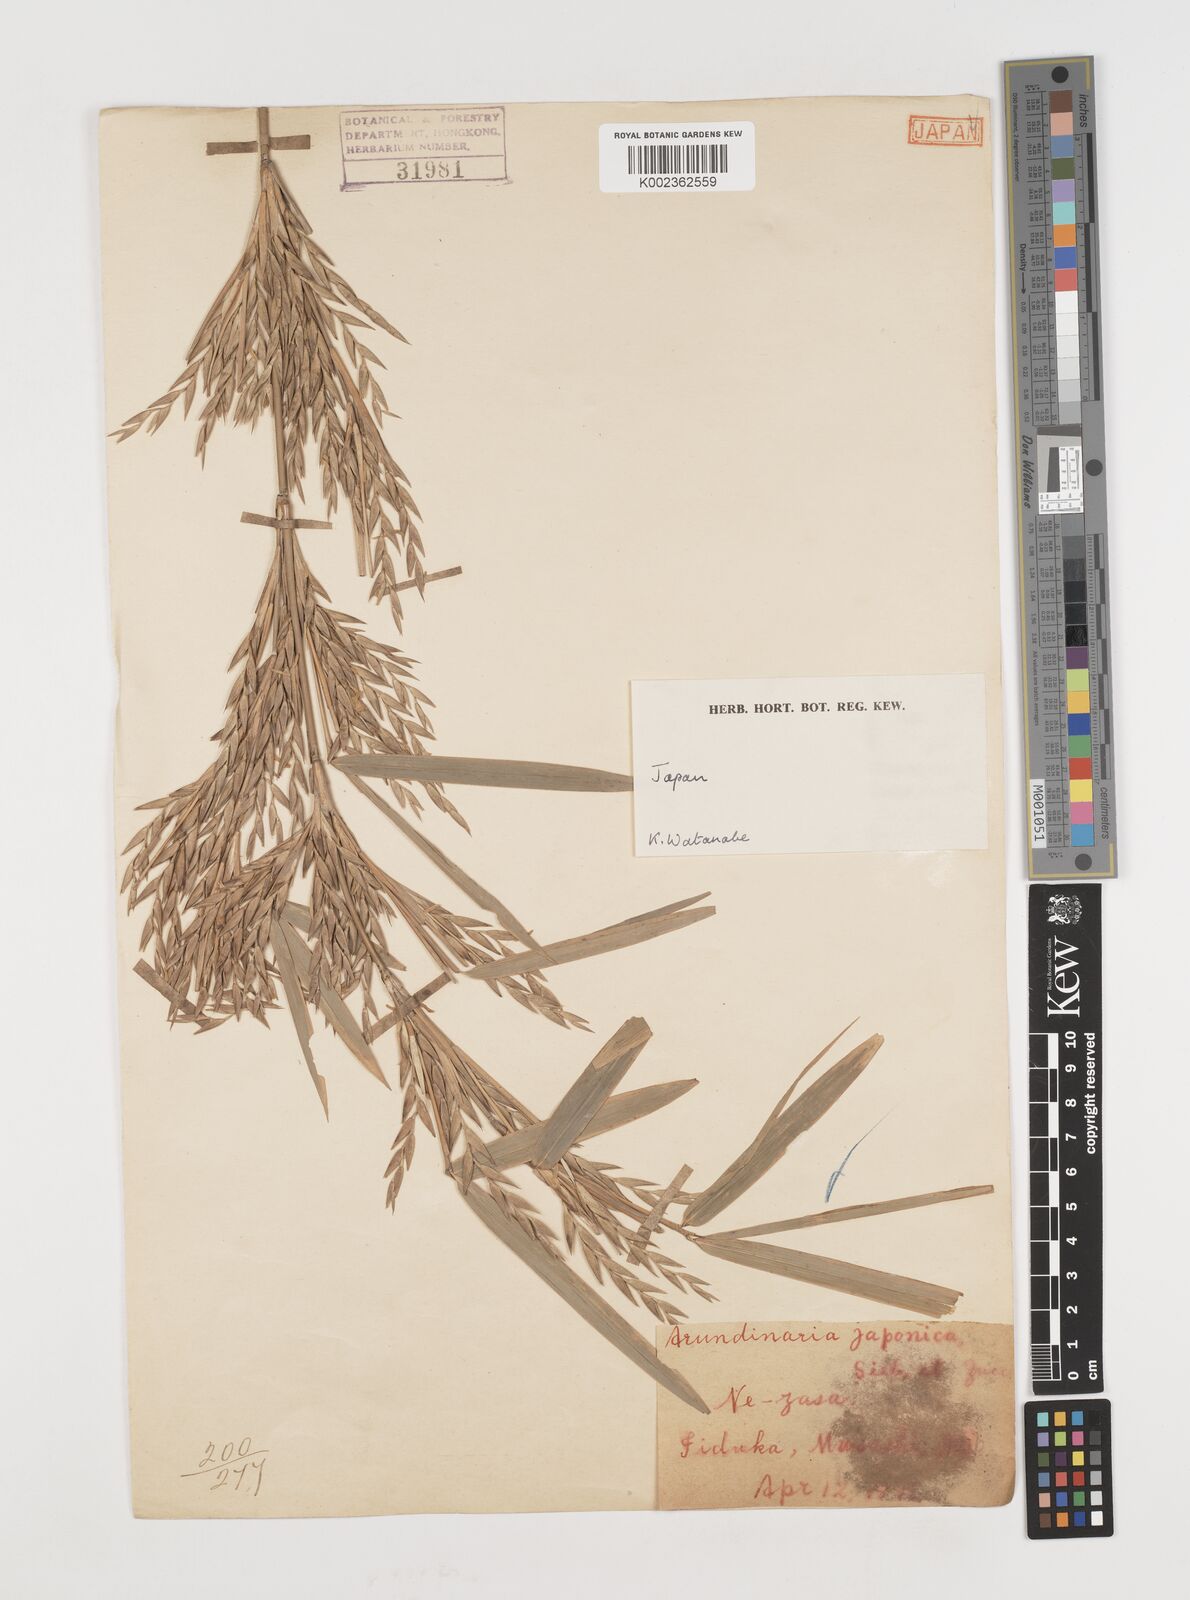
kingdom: Plantae
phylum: Tracheophyta
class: Liliopsida
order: Poales
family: Poaceae
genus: Pseudosasa
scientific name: Pseudosasa japonica
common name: Arrow bamboo
